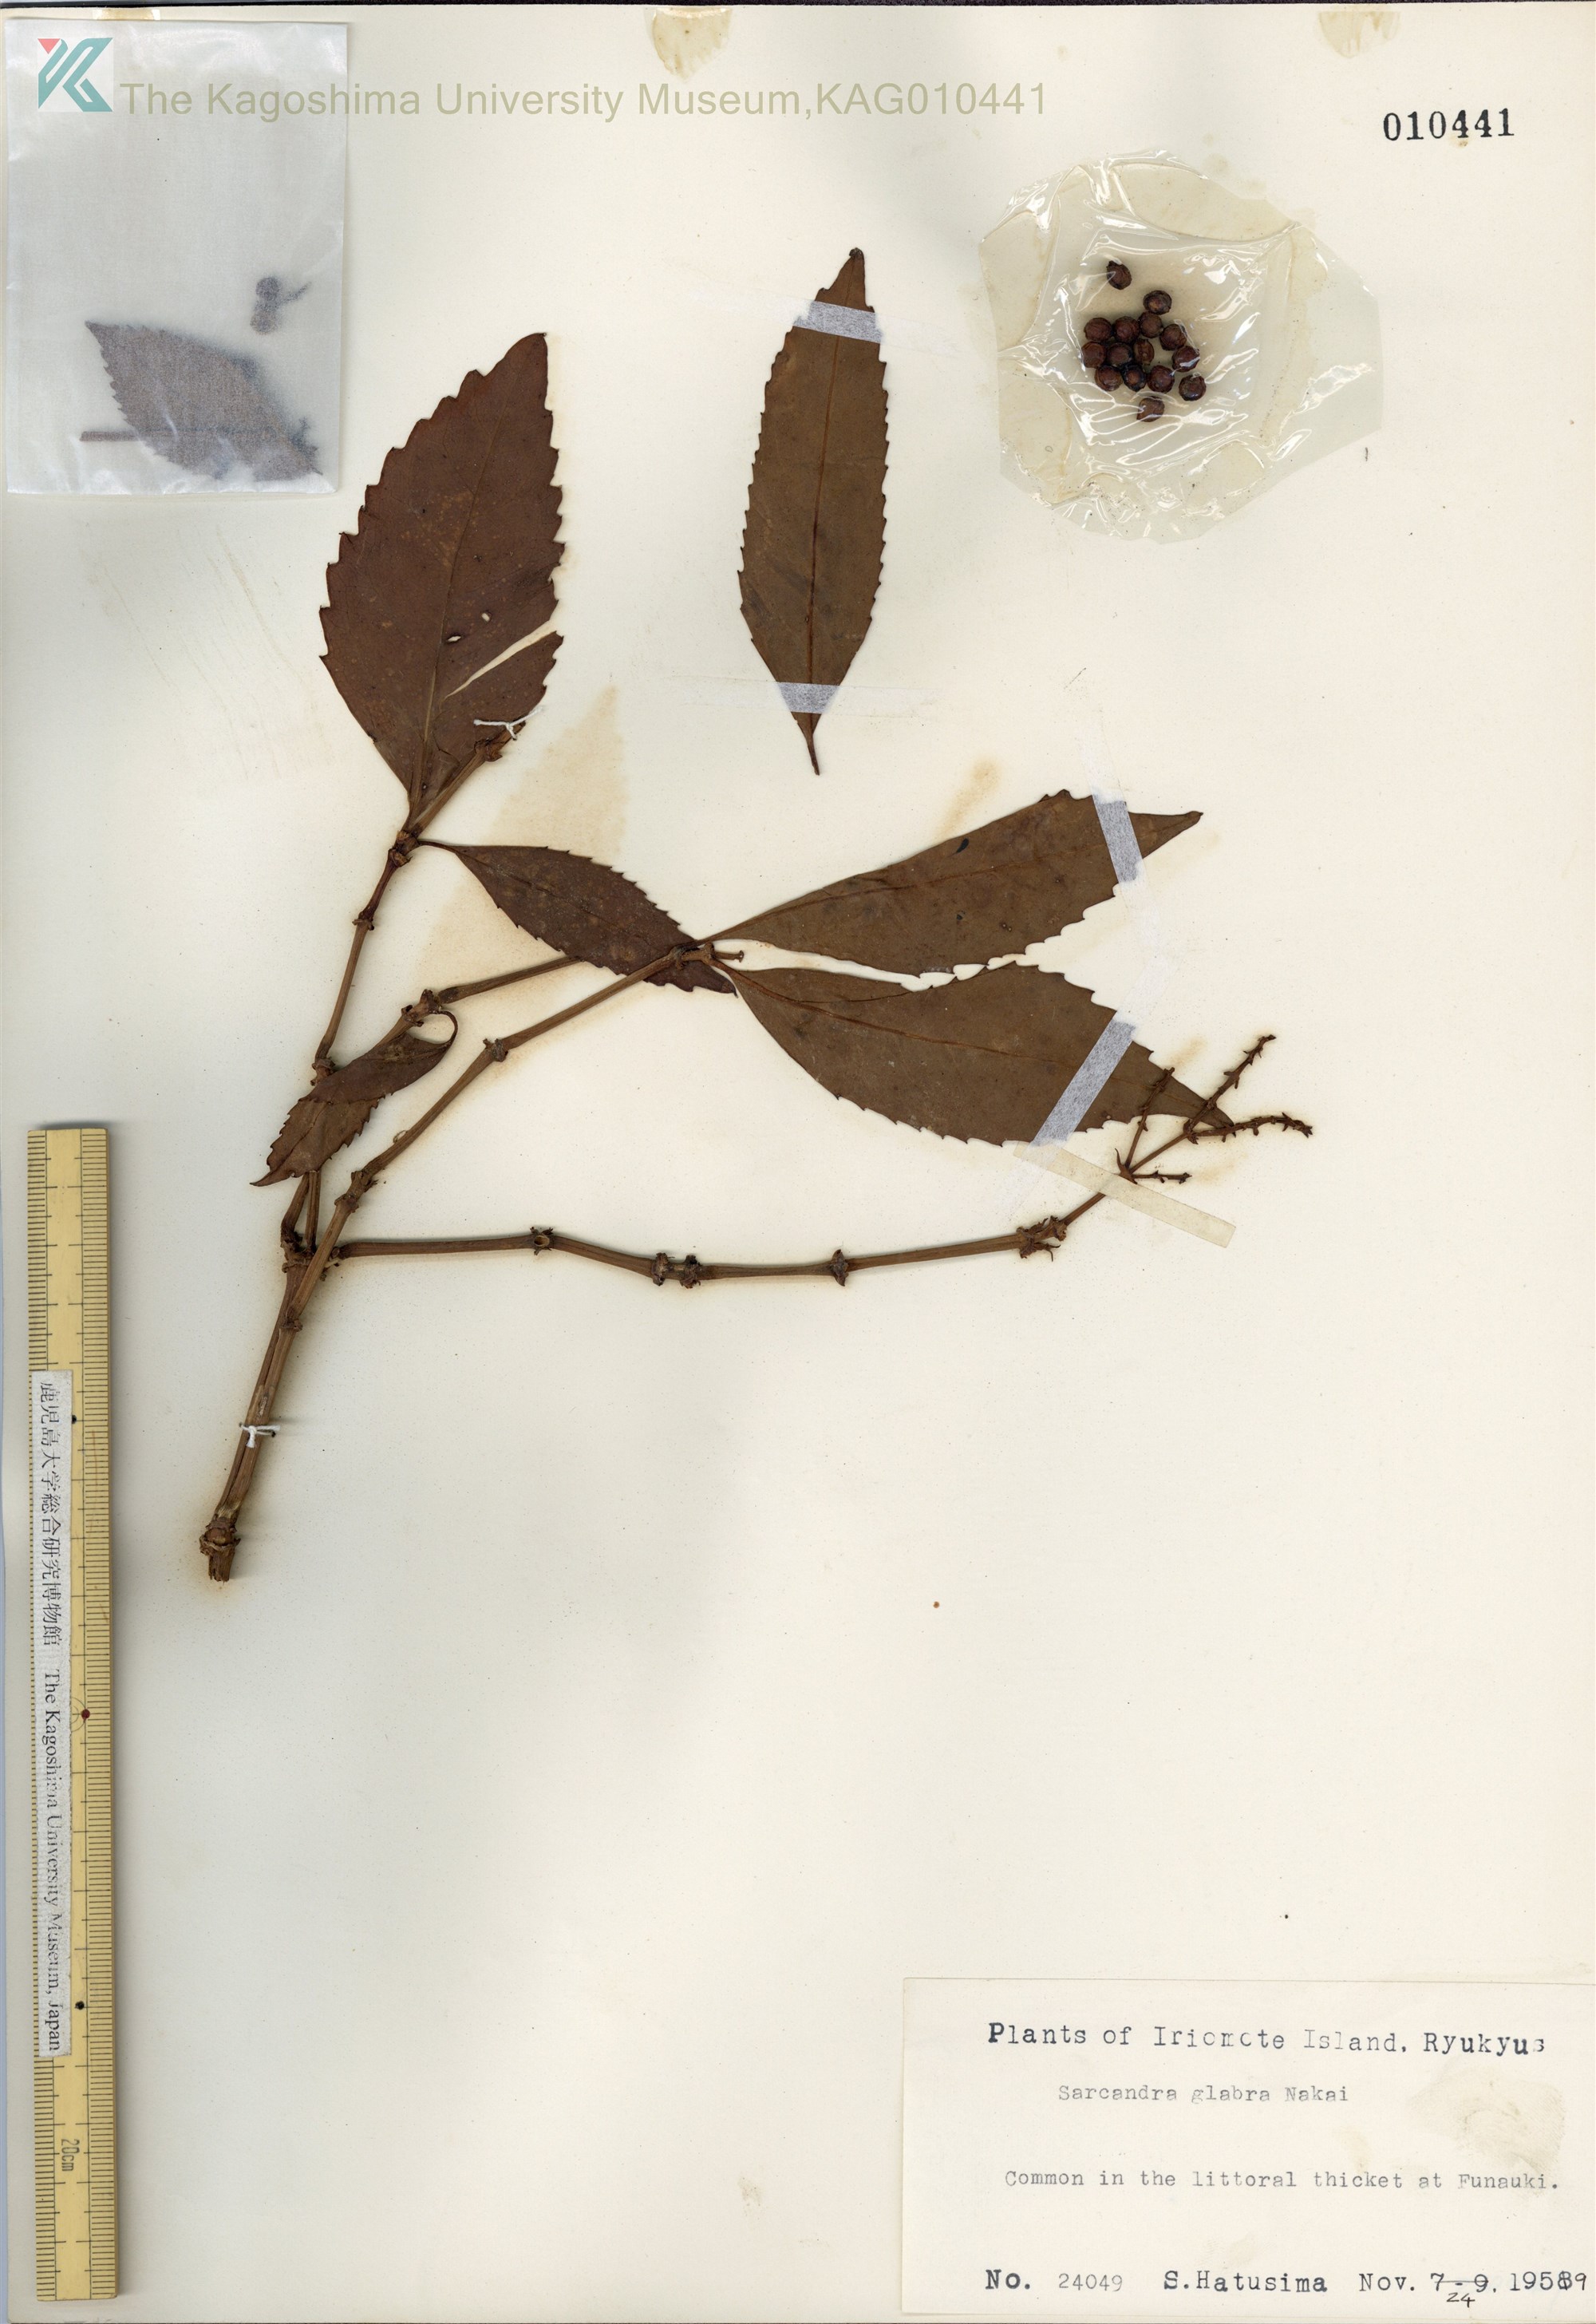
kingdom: Plantae
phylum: Tracheophyta
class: Magnoliopsida
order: Chloranthales
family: Chloranthaceae
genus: Sarcandra
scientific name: Sarcandra glabra
